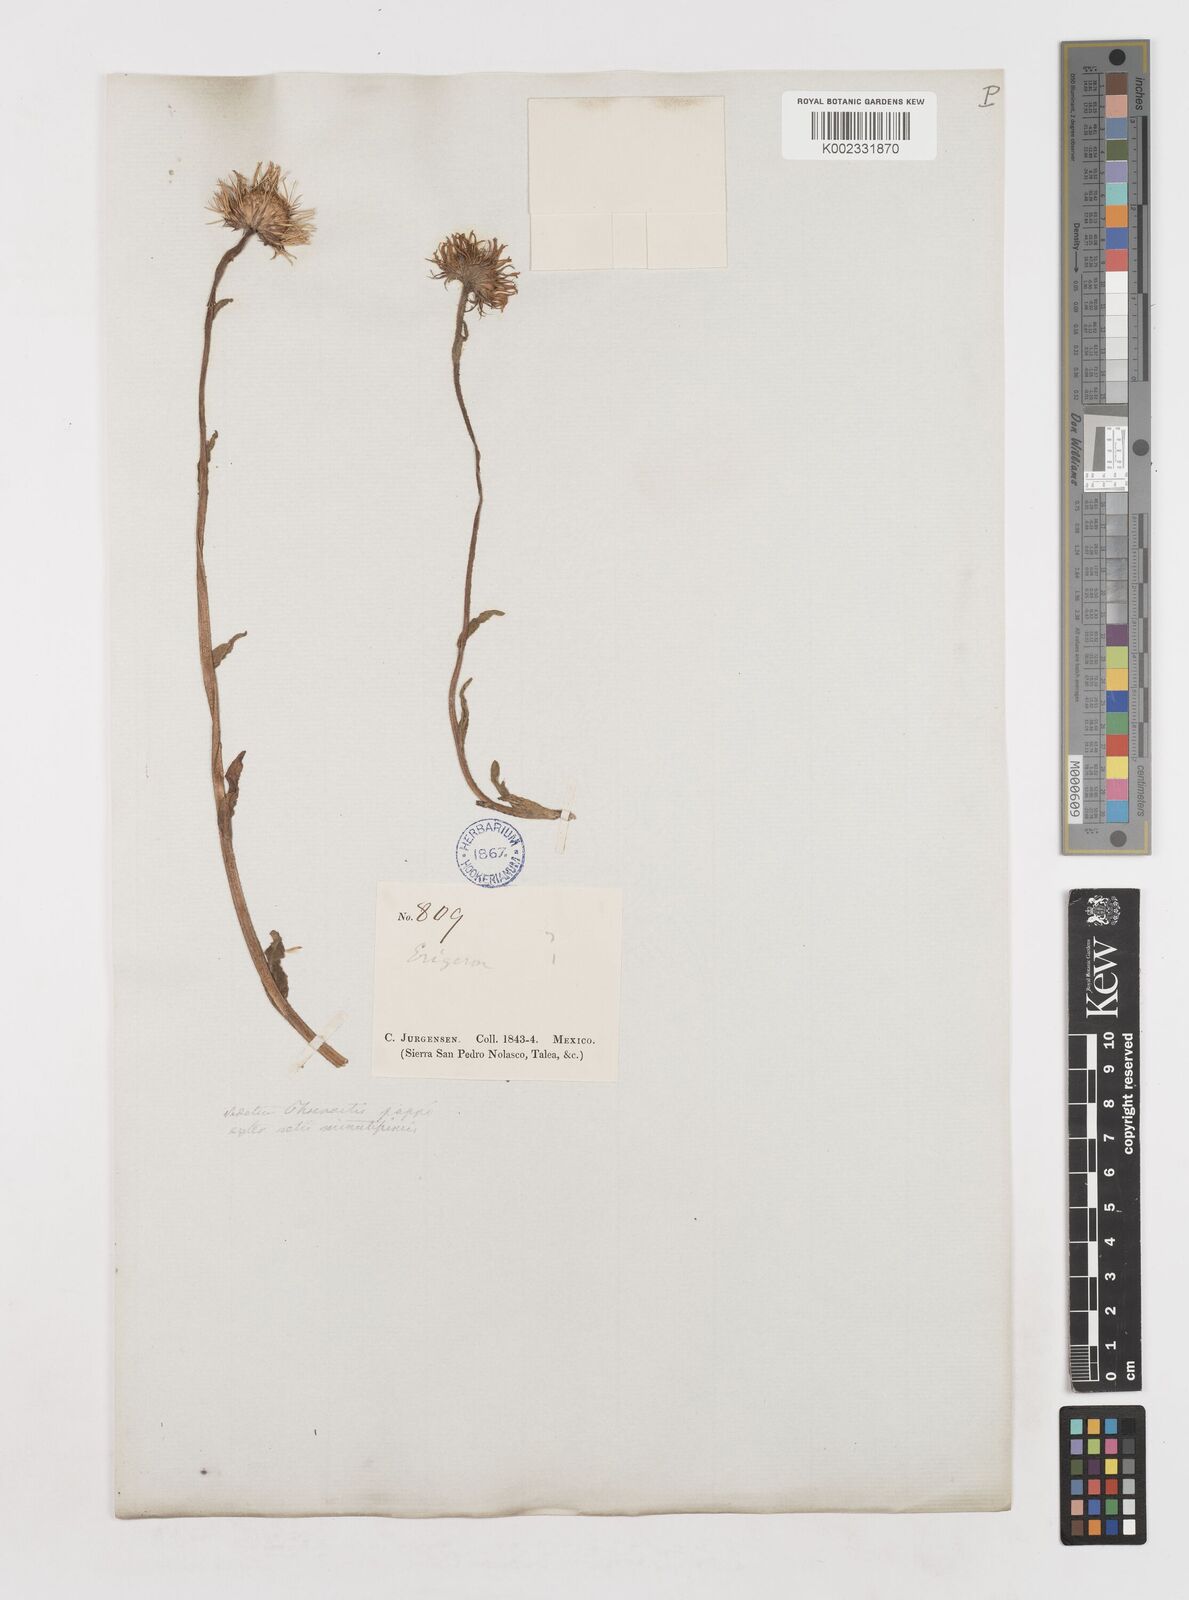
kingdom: Plantae
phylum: Tracheophyta
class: Magnoliopsida
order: Asterales
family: Asteraceae
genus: Erigeron
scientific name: Erigeron
